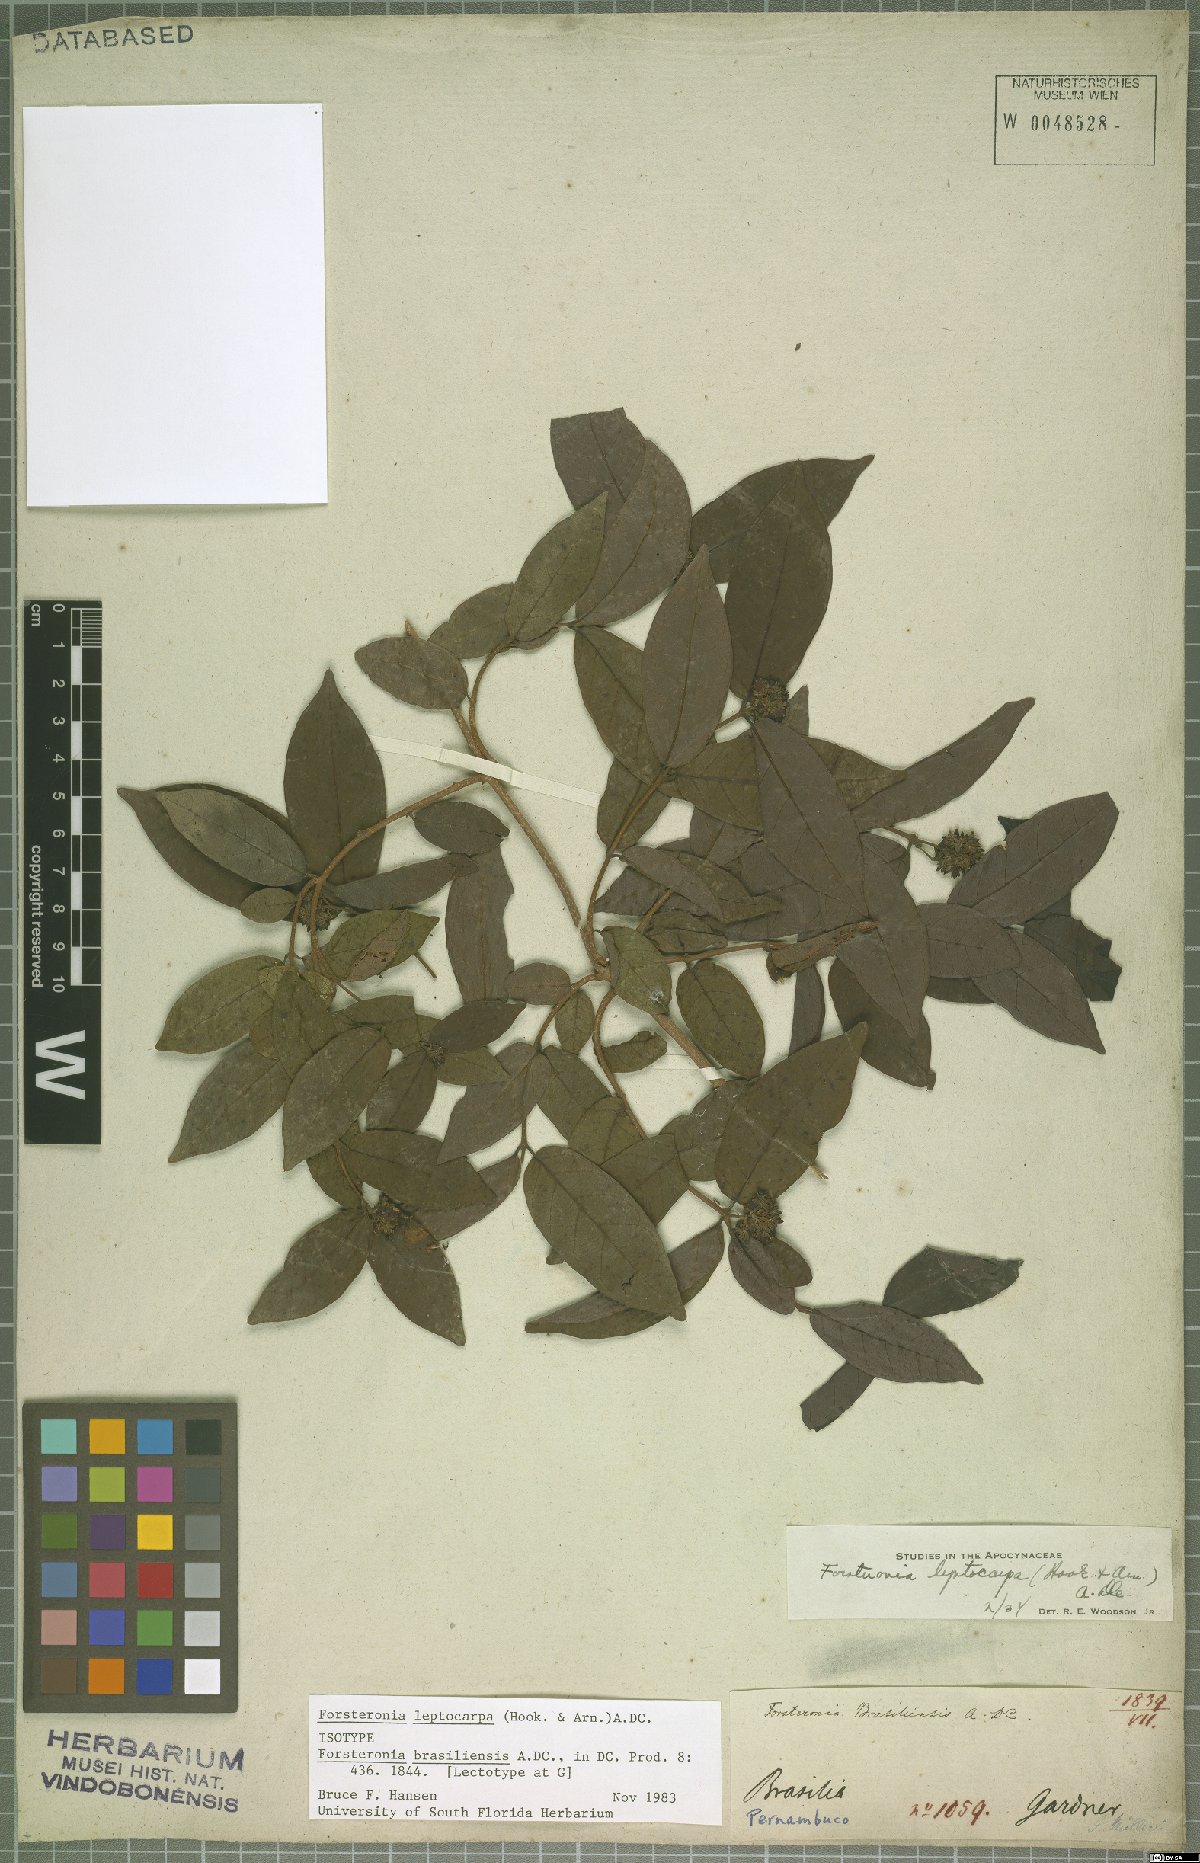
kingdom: Plantae
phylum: Tracheophyta
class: Magnoliopsida
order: Gentianales
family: Apocynaceae
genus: Forsteronia
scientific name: Forsteronia leptocarpa
